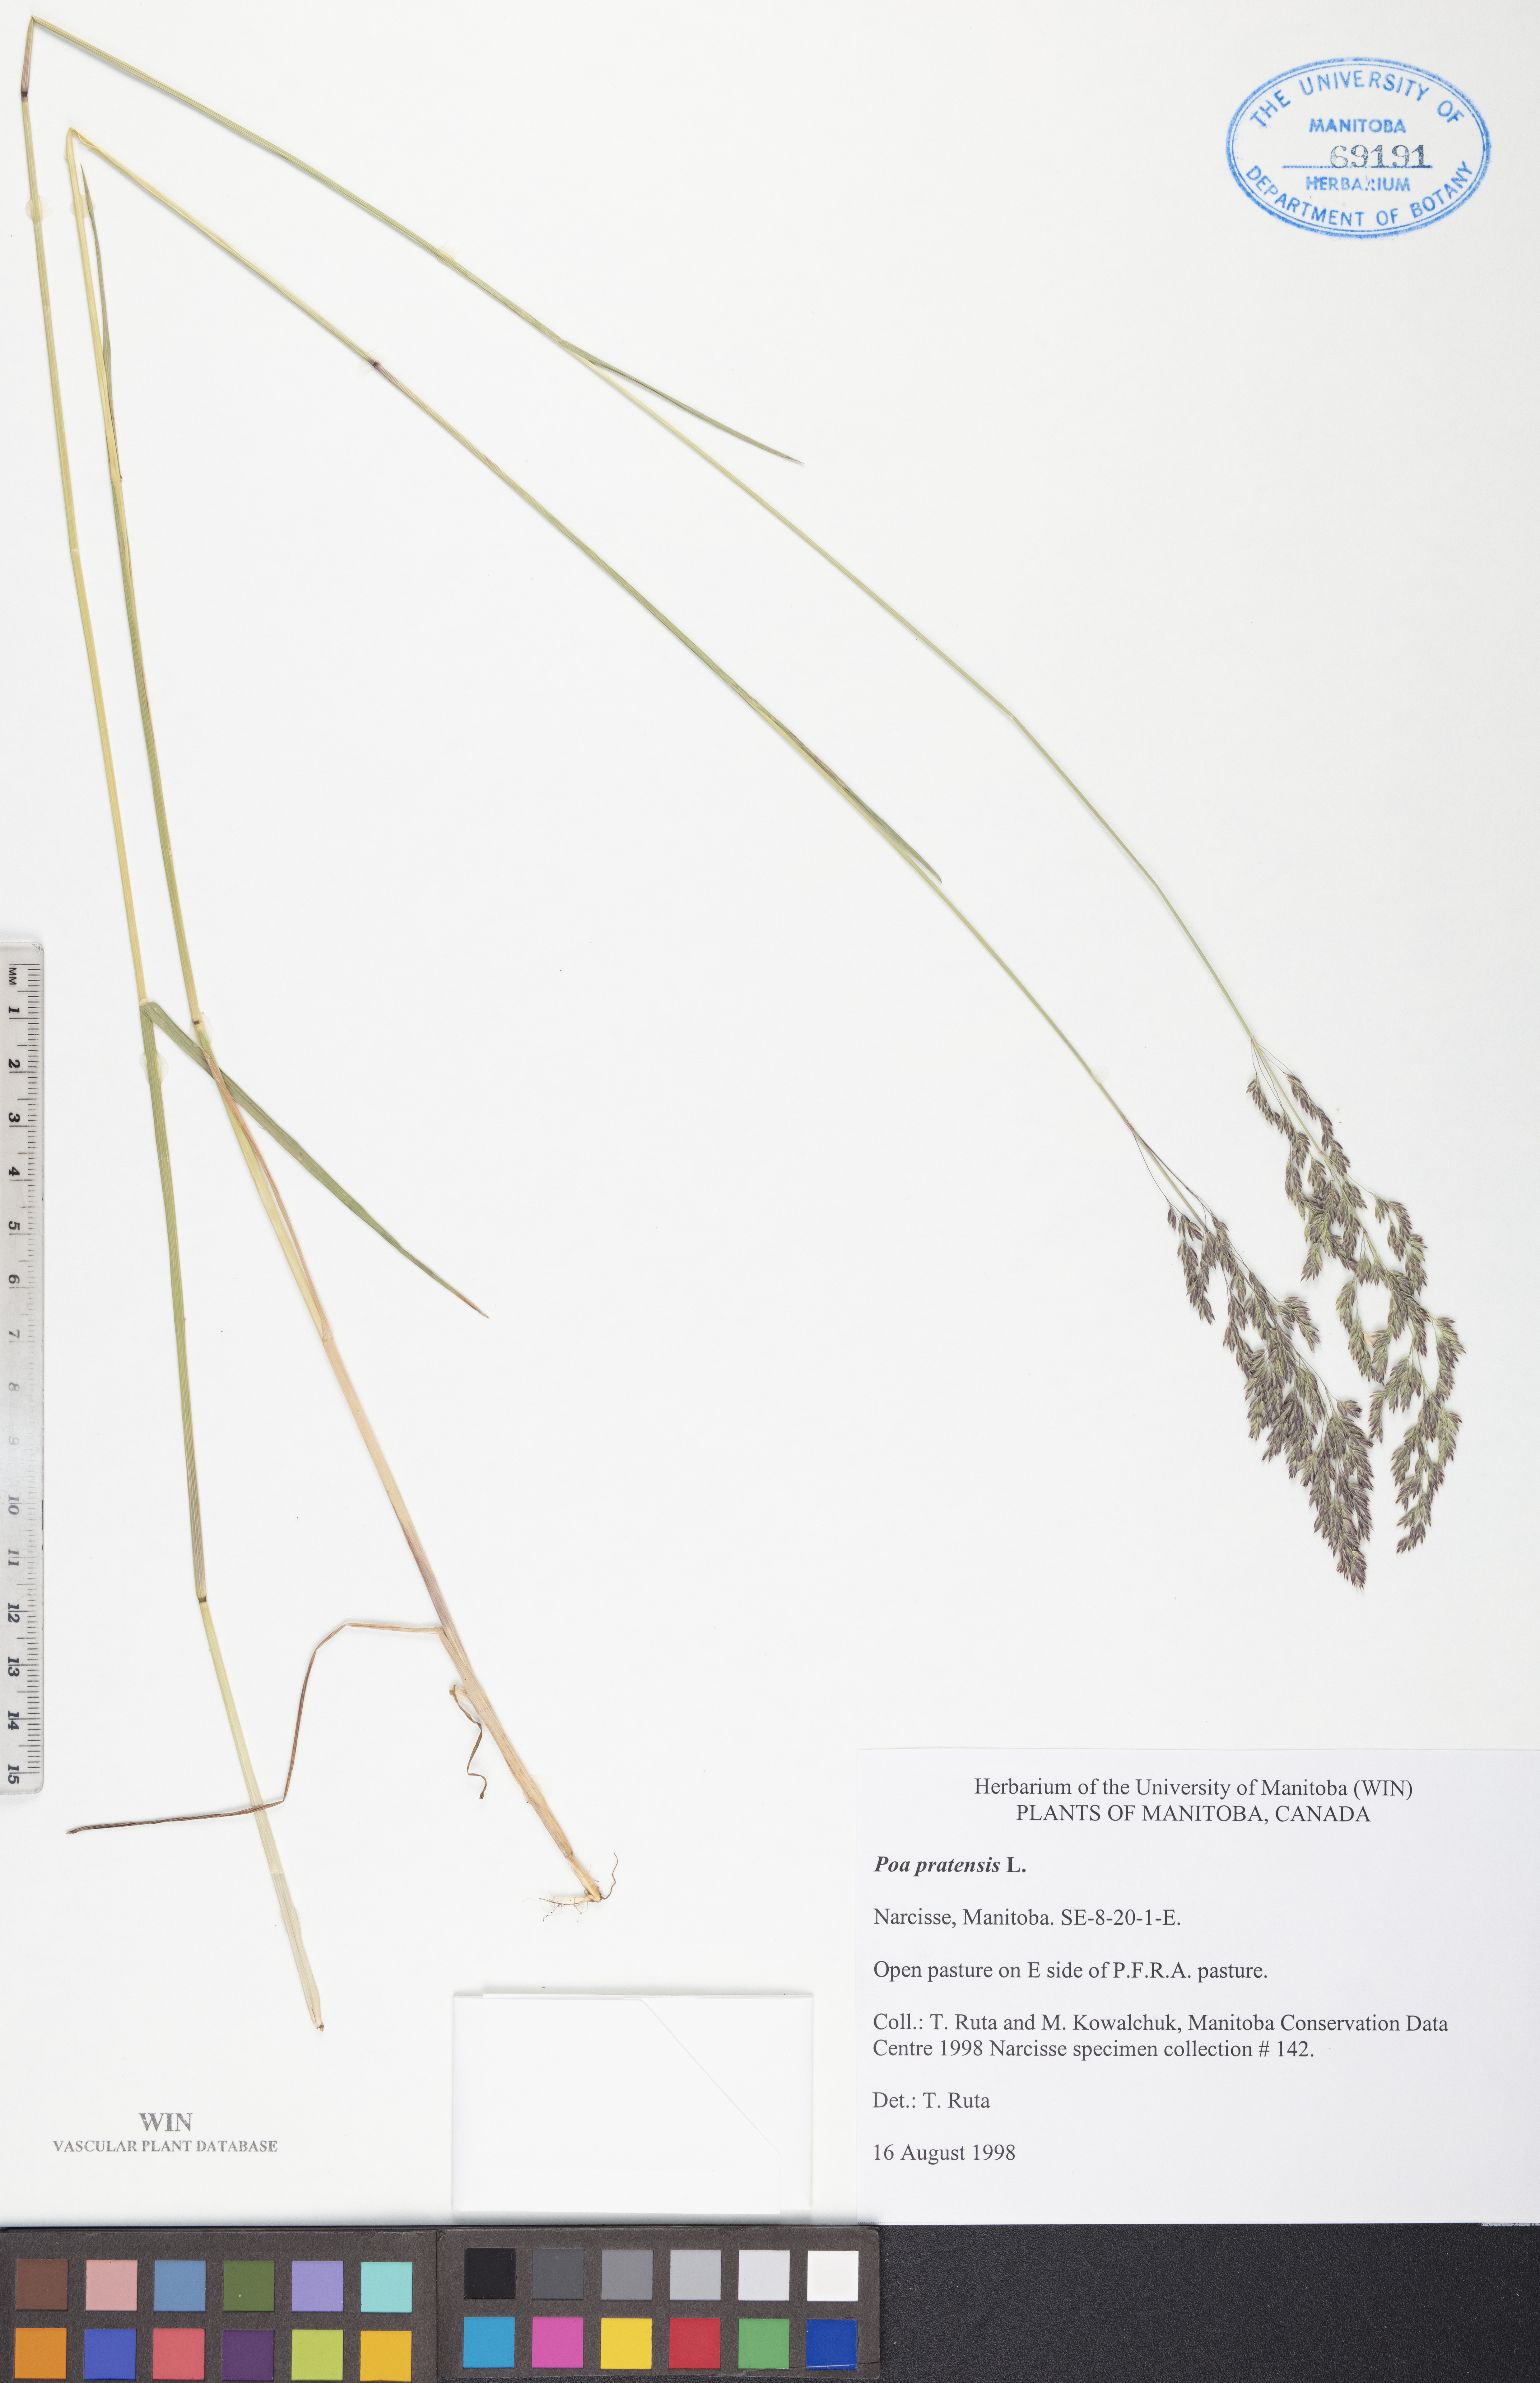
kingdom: Plantae
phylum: Tracheophyta
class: Liliopsida
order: Poales
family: Poaceae
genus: Poa
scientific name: Poa pratensis
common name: Kentucky bluegrass
